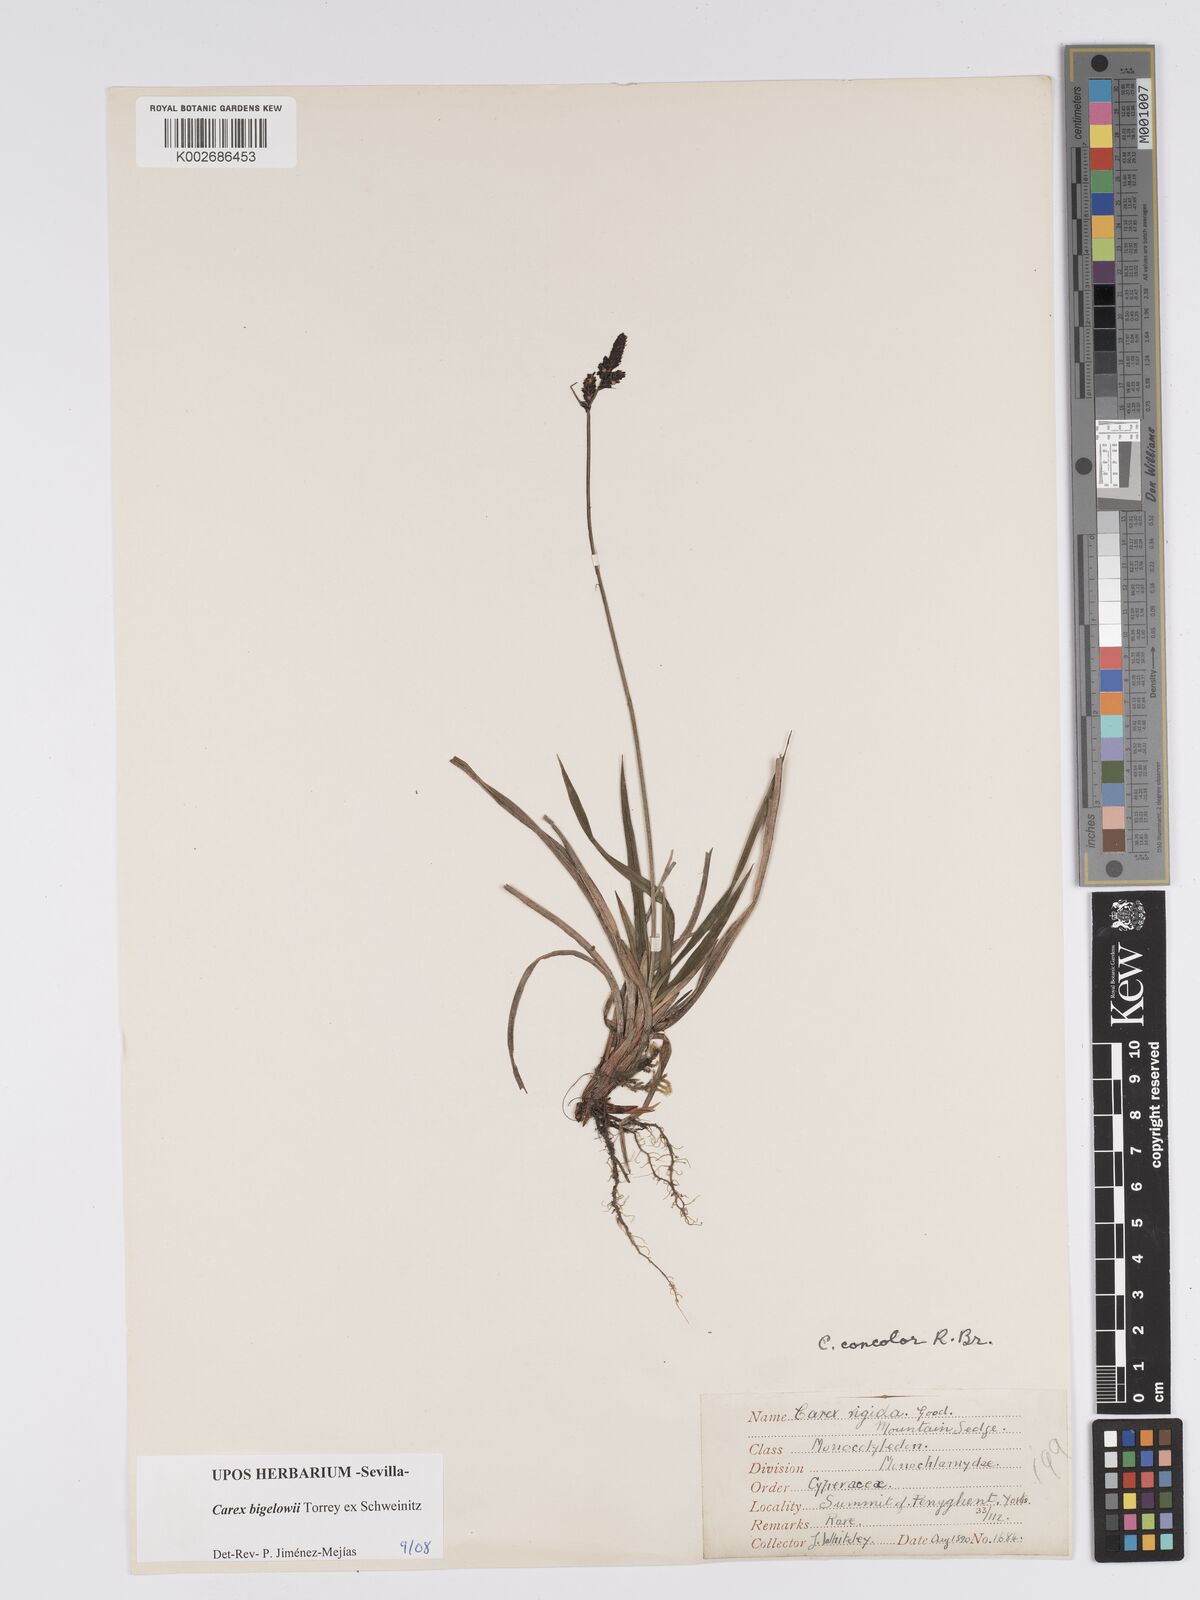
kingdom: Plantae
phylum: Tracheophyta
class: Liliopsida
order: Poales
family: Cyperaceae
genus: Carex
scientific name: Carex bigelowii
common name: Stiff sedge
